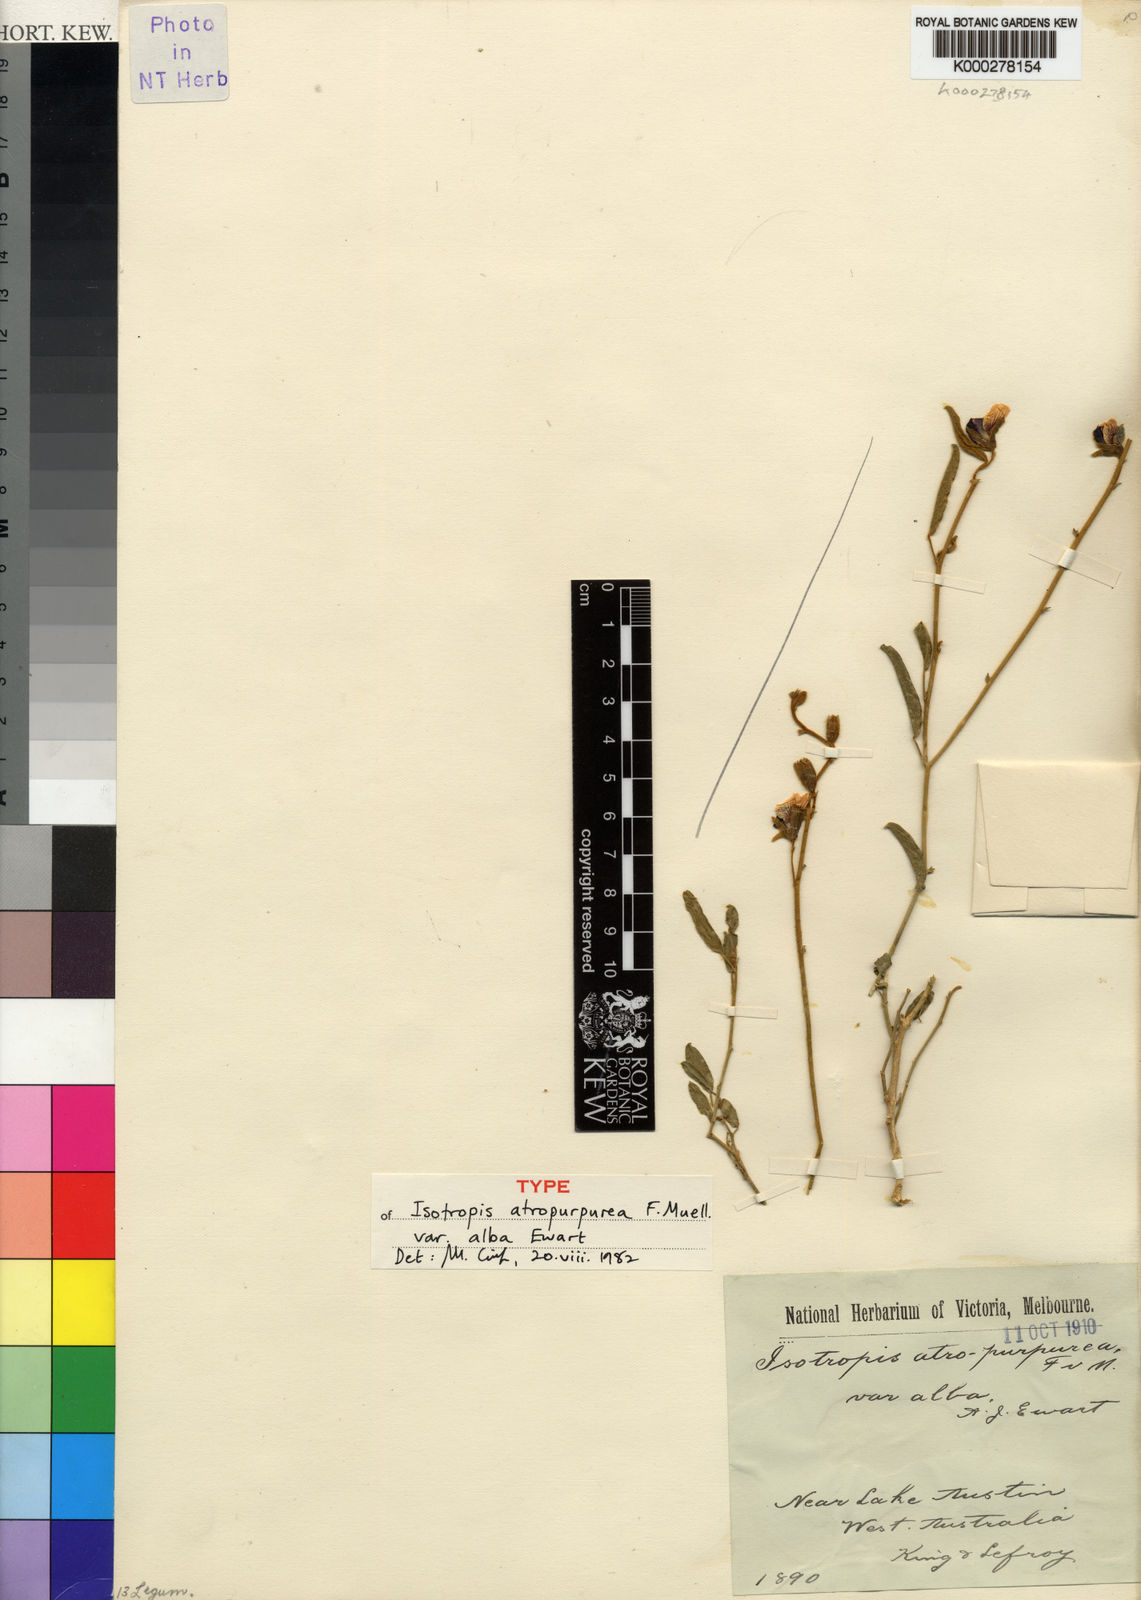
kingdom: Plantae
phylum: Tracheophyta
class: Magnoliopsida
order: Fabales
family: Fabaceae
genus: Isotropis
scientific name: Isotropis atropurpurea
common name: Poison-sage
